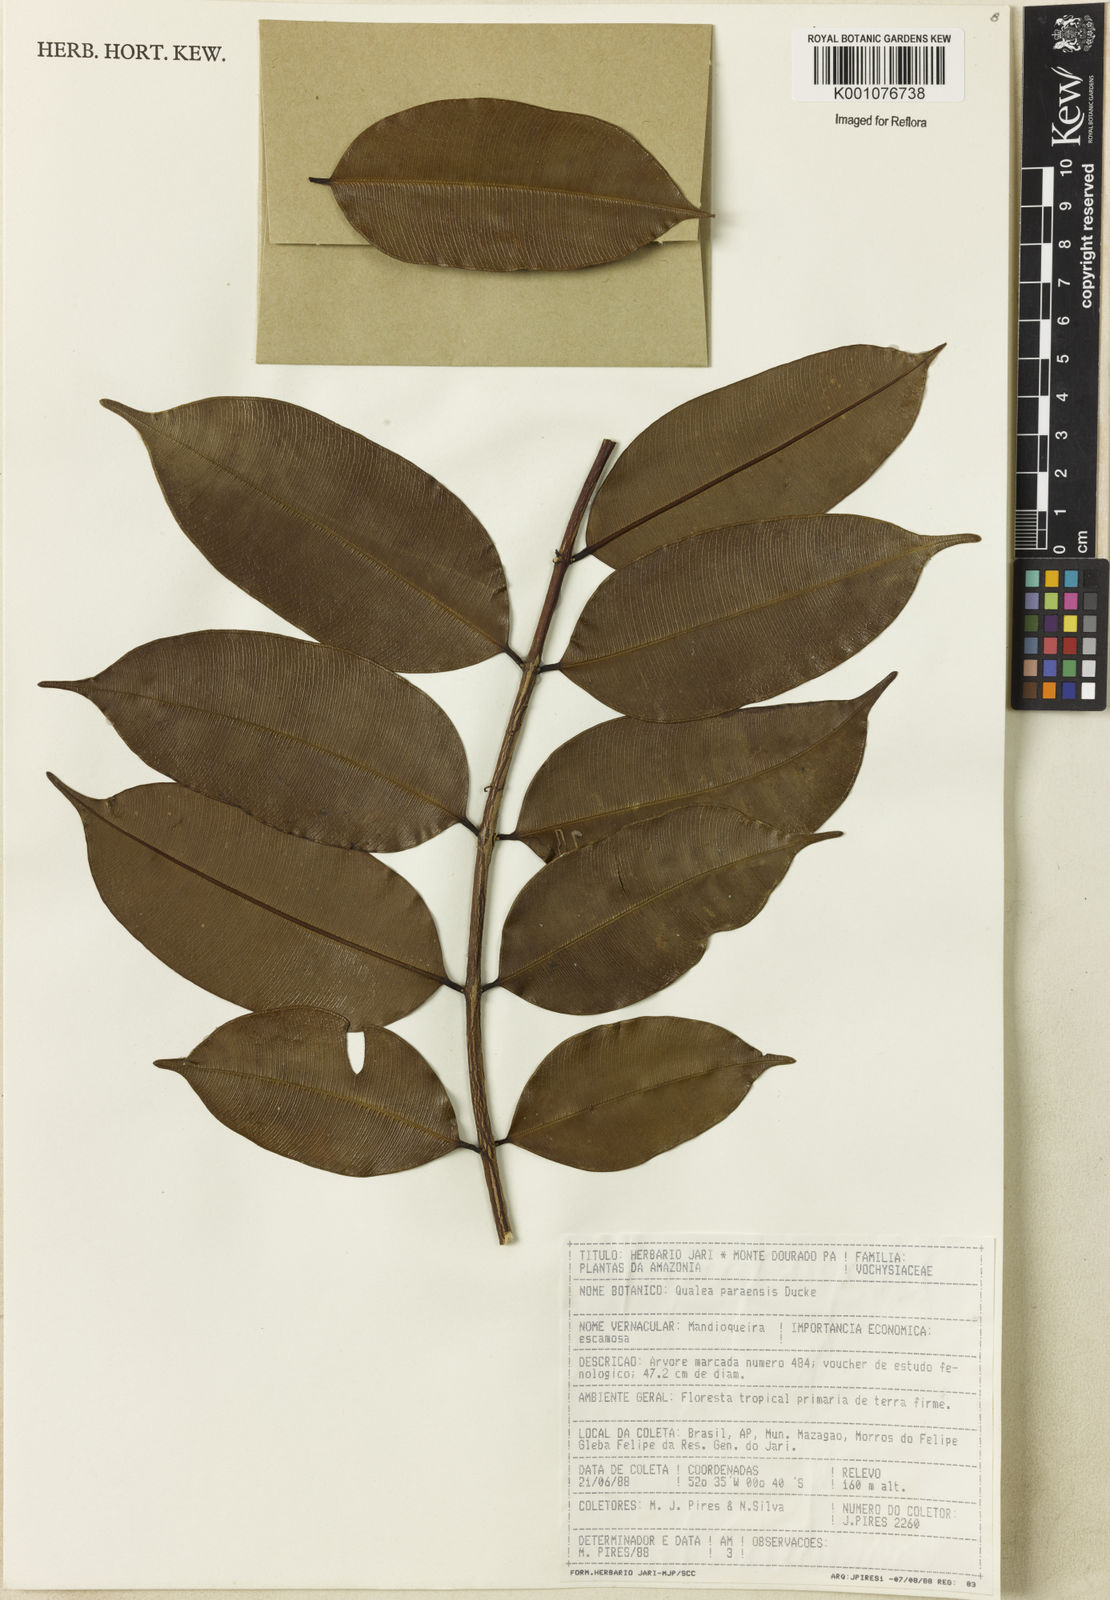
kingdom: Plantae
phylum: Tracheophyta
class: Magnoliopsida
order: Myrtales
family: Vochysiaceae
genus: Qualea
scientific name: Qualea paraensis
